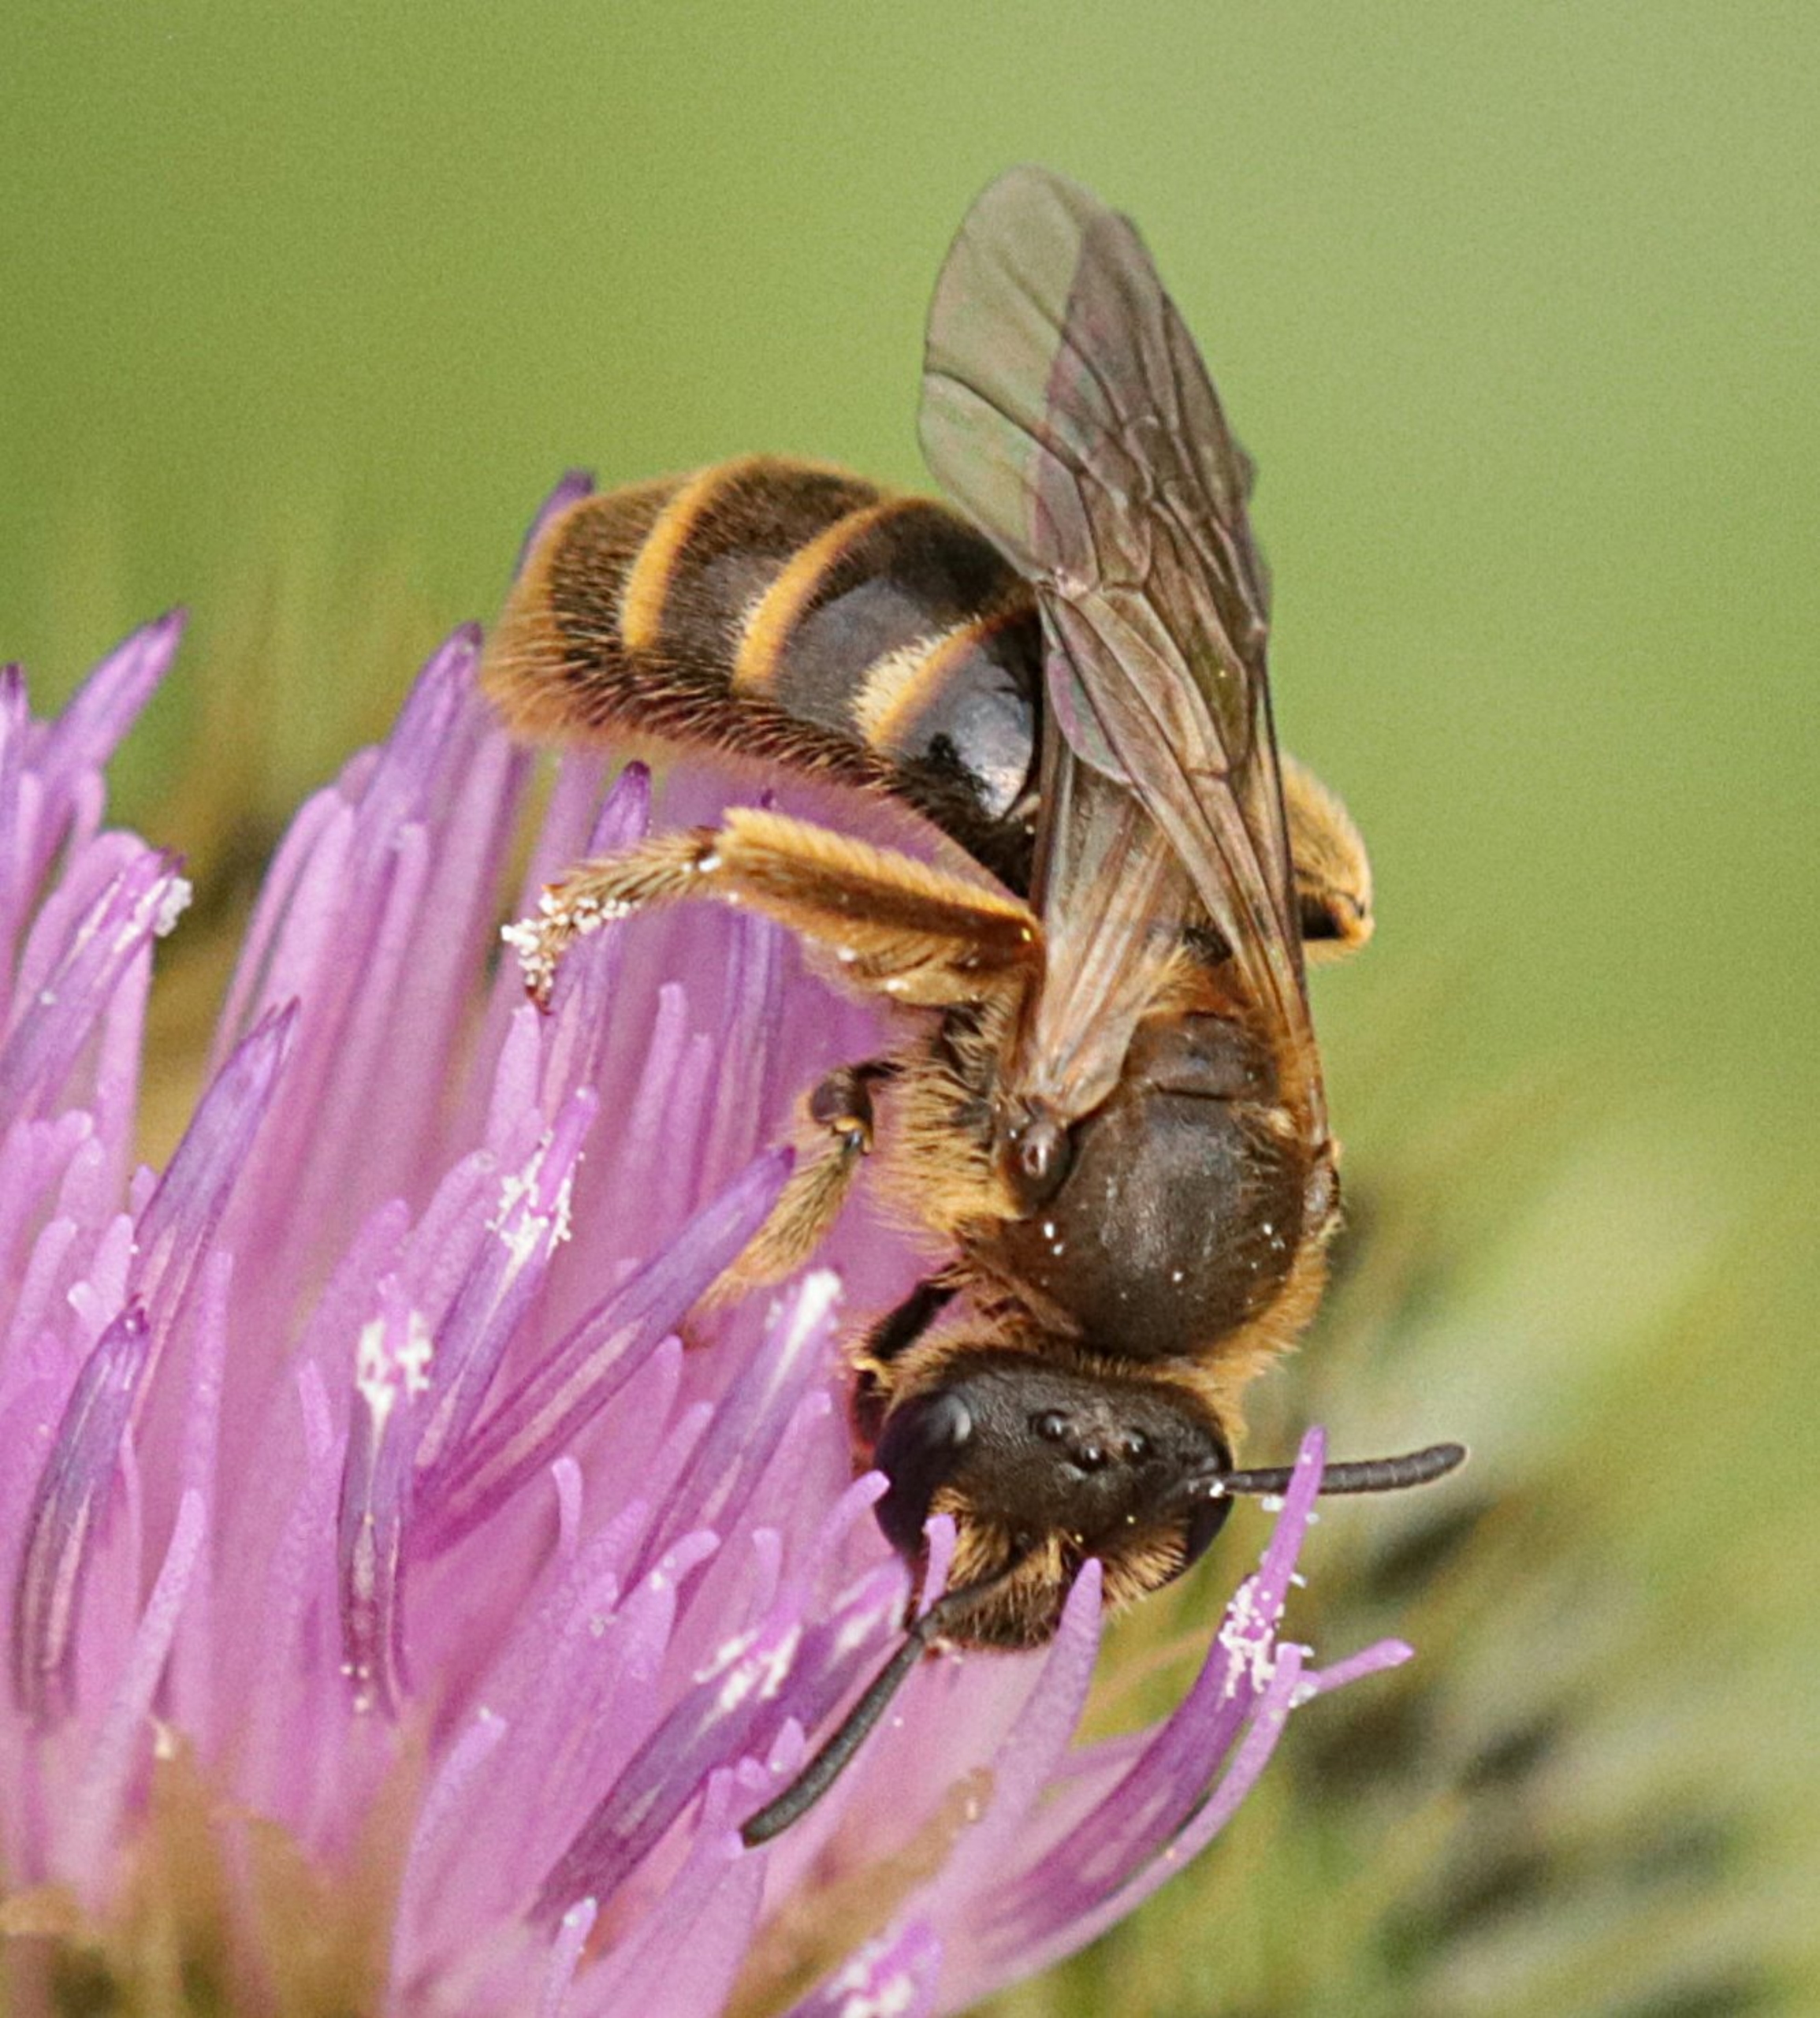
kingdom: Animalia
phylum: Arthropoda
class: Insecta
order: Hymenoptera
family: Halictidae
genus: Lasioglossum
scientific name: Lasioglossum
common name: Smalbier
